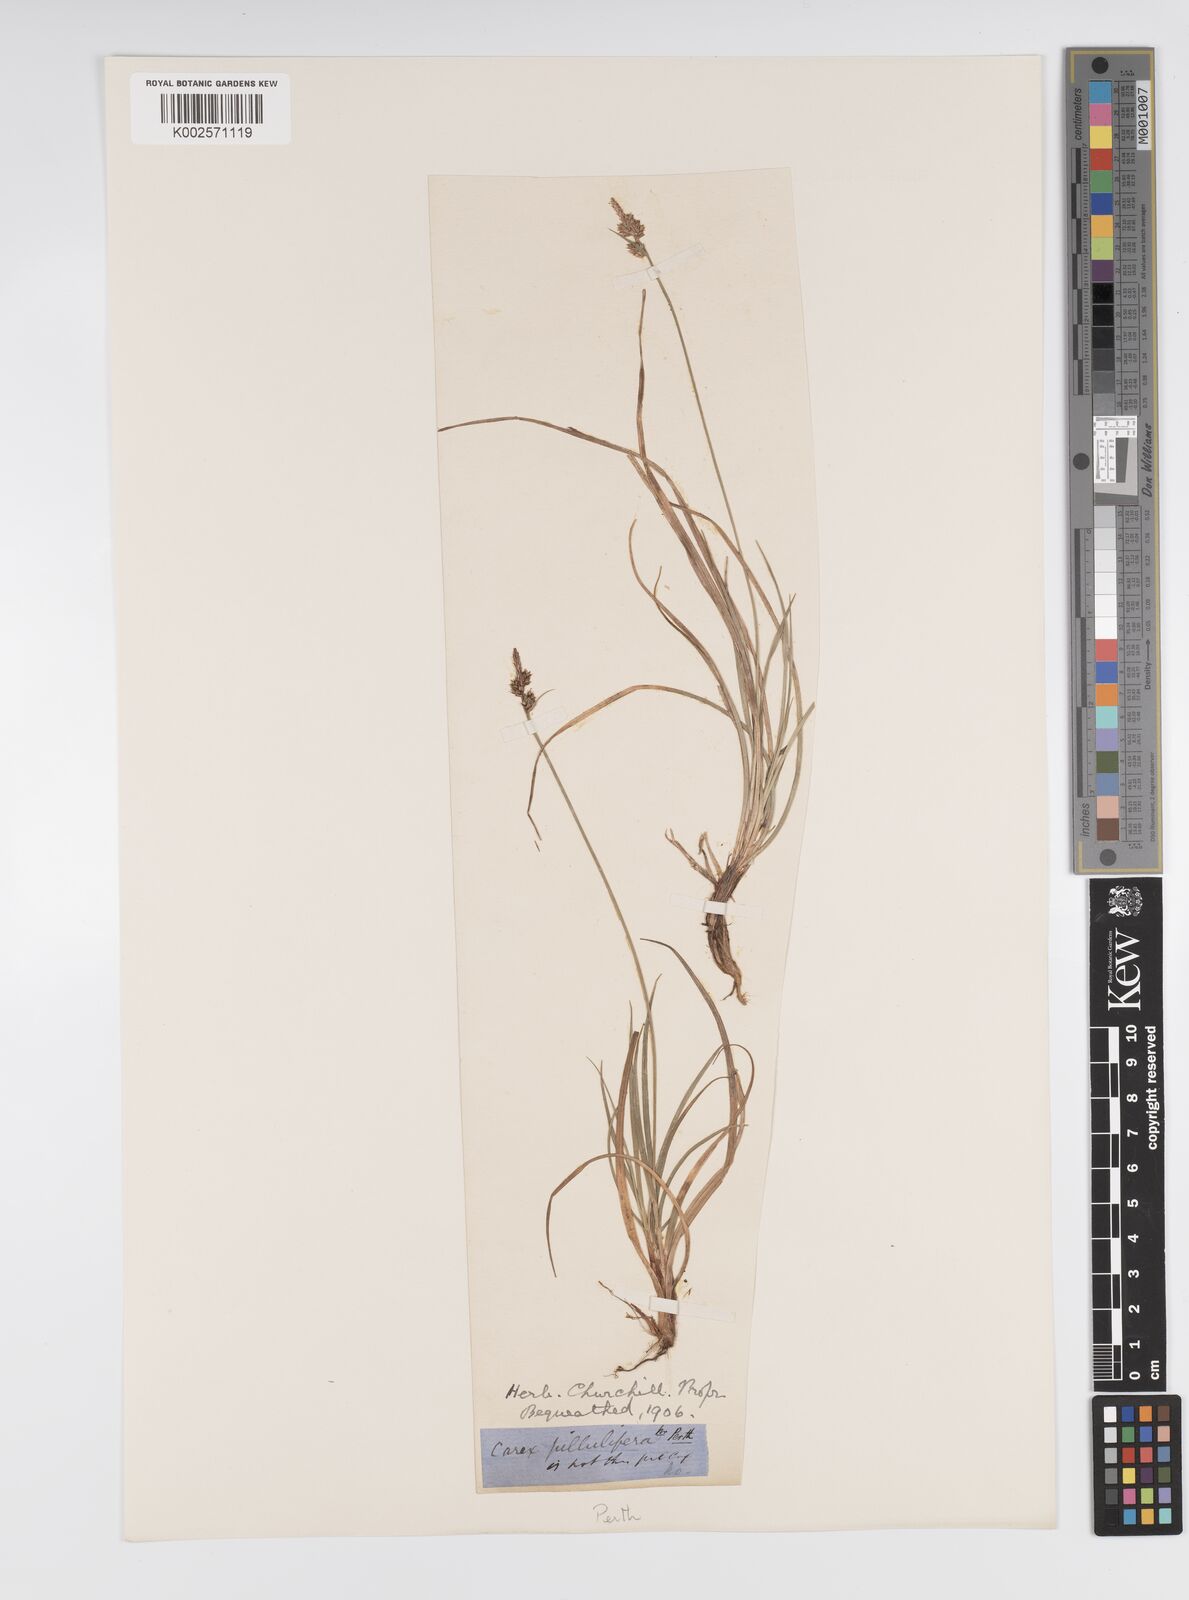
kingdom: Plantae
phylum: Tracheophyta
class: Liliopsida
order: Poales
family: Cyperaceae
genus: Carex
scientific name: Carex pilulifera
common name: Pill sedge
